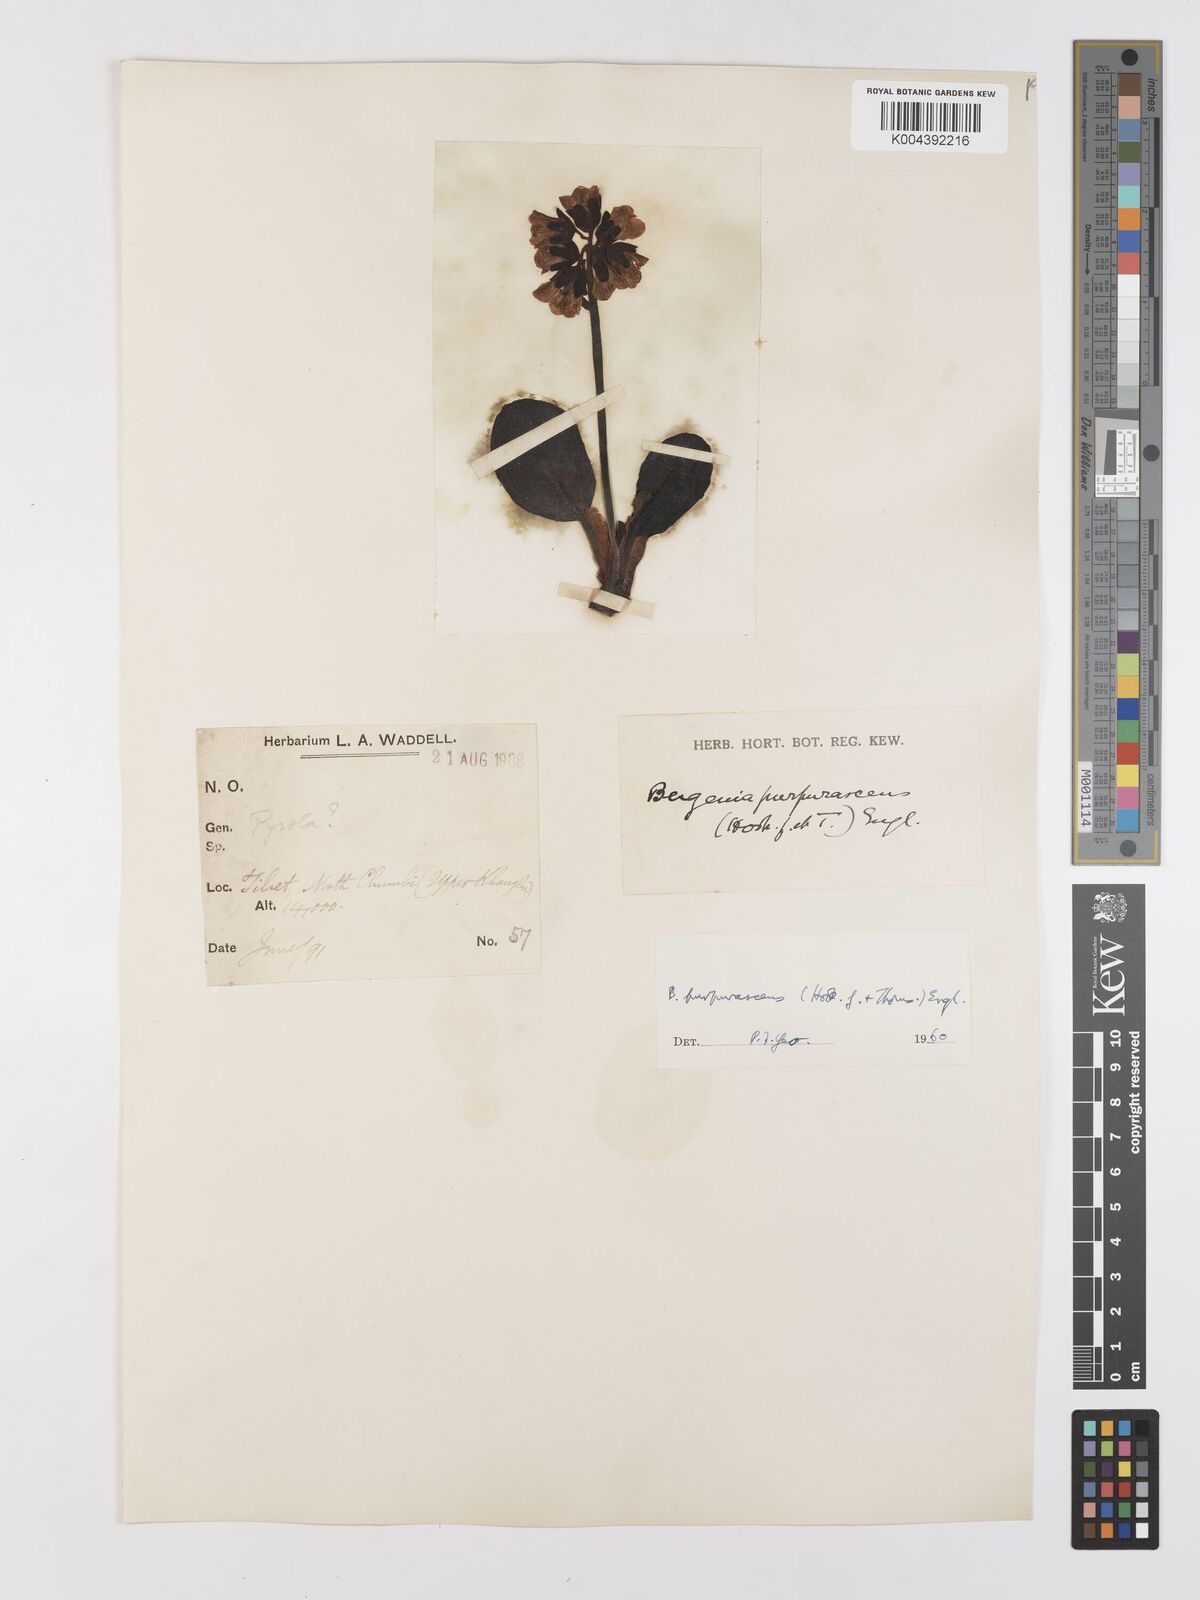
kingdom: Plantae
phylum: Tracheophyta
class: Magnoliopsida
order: Saxifragales
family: Saxifragaceae
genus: Bergenia
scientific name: Bergenia purpurascens
